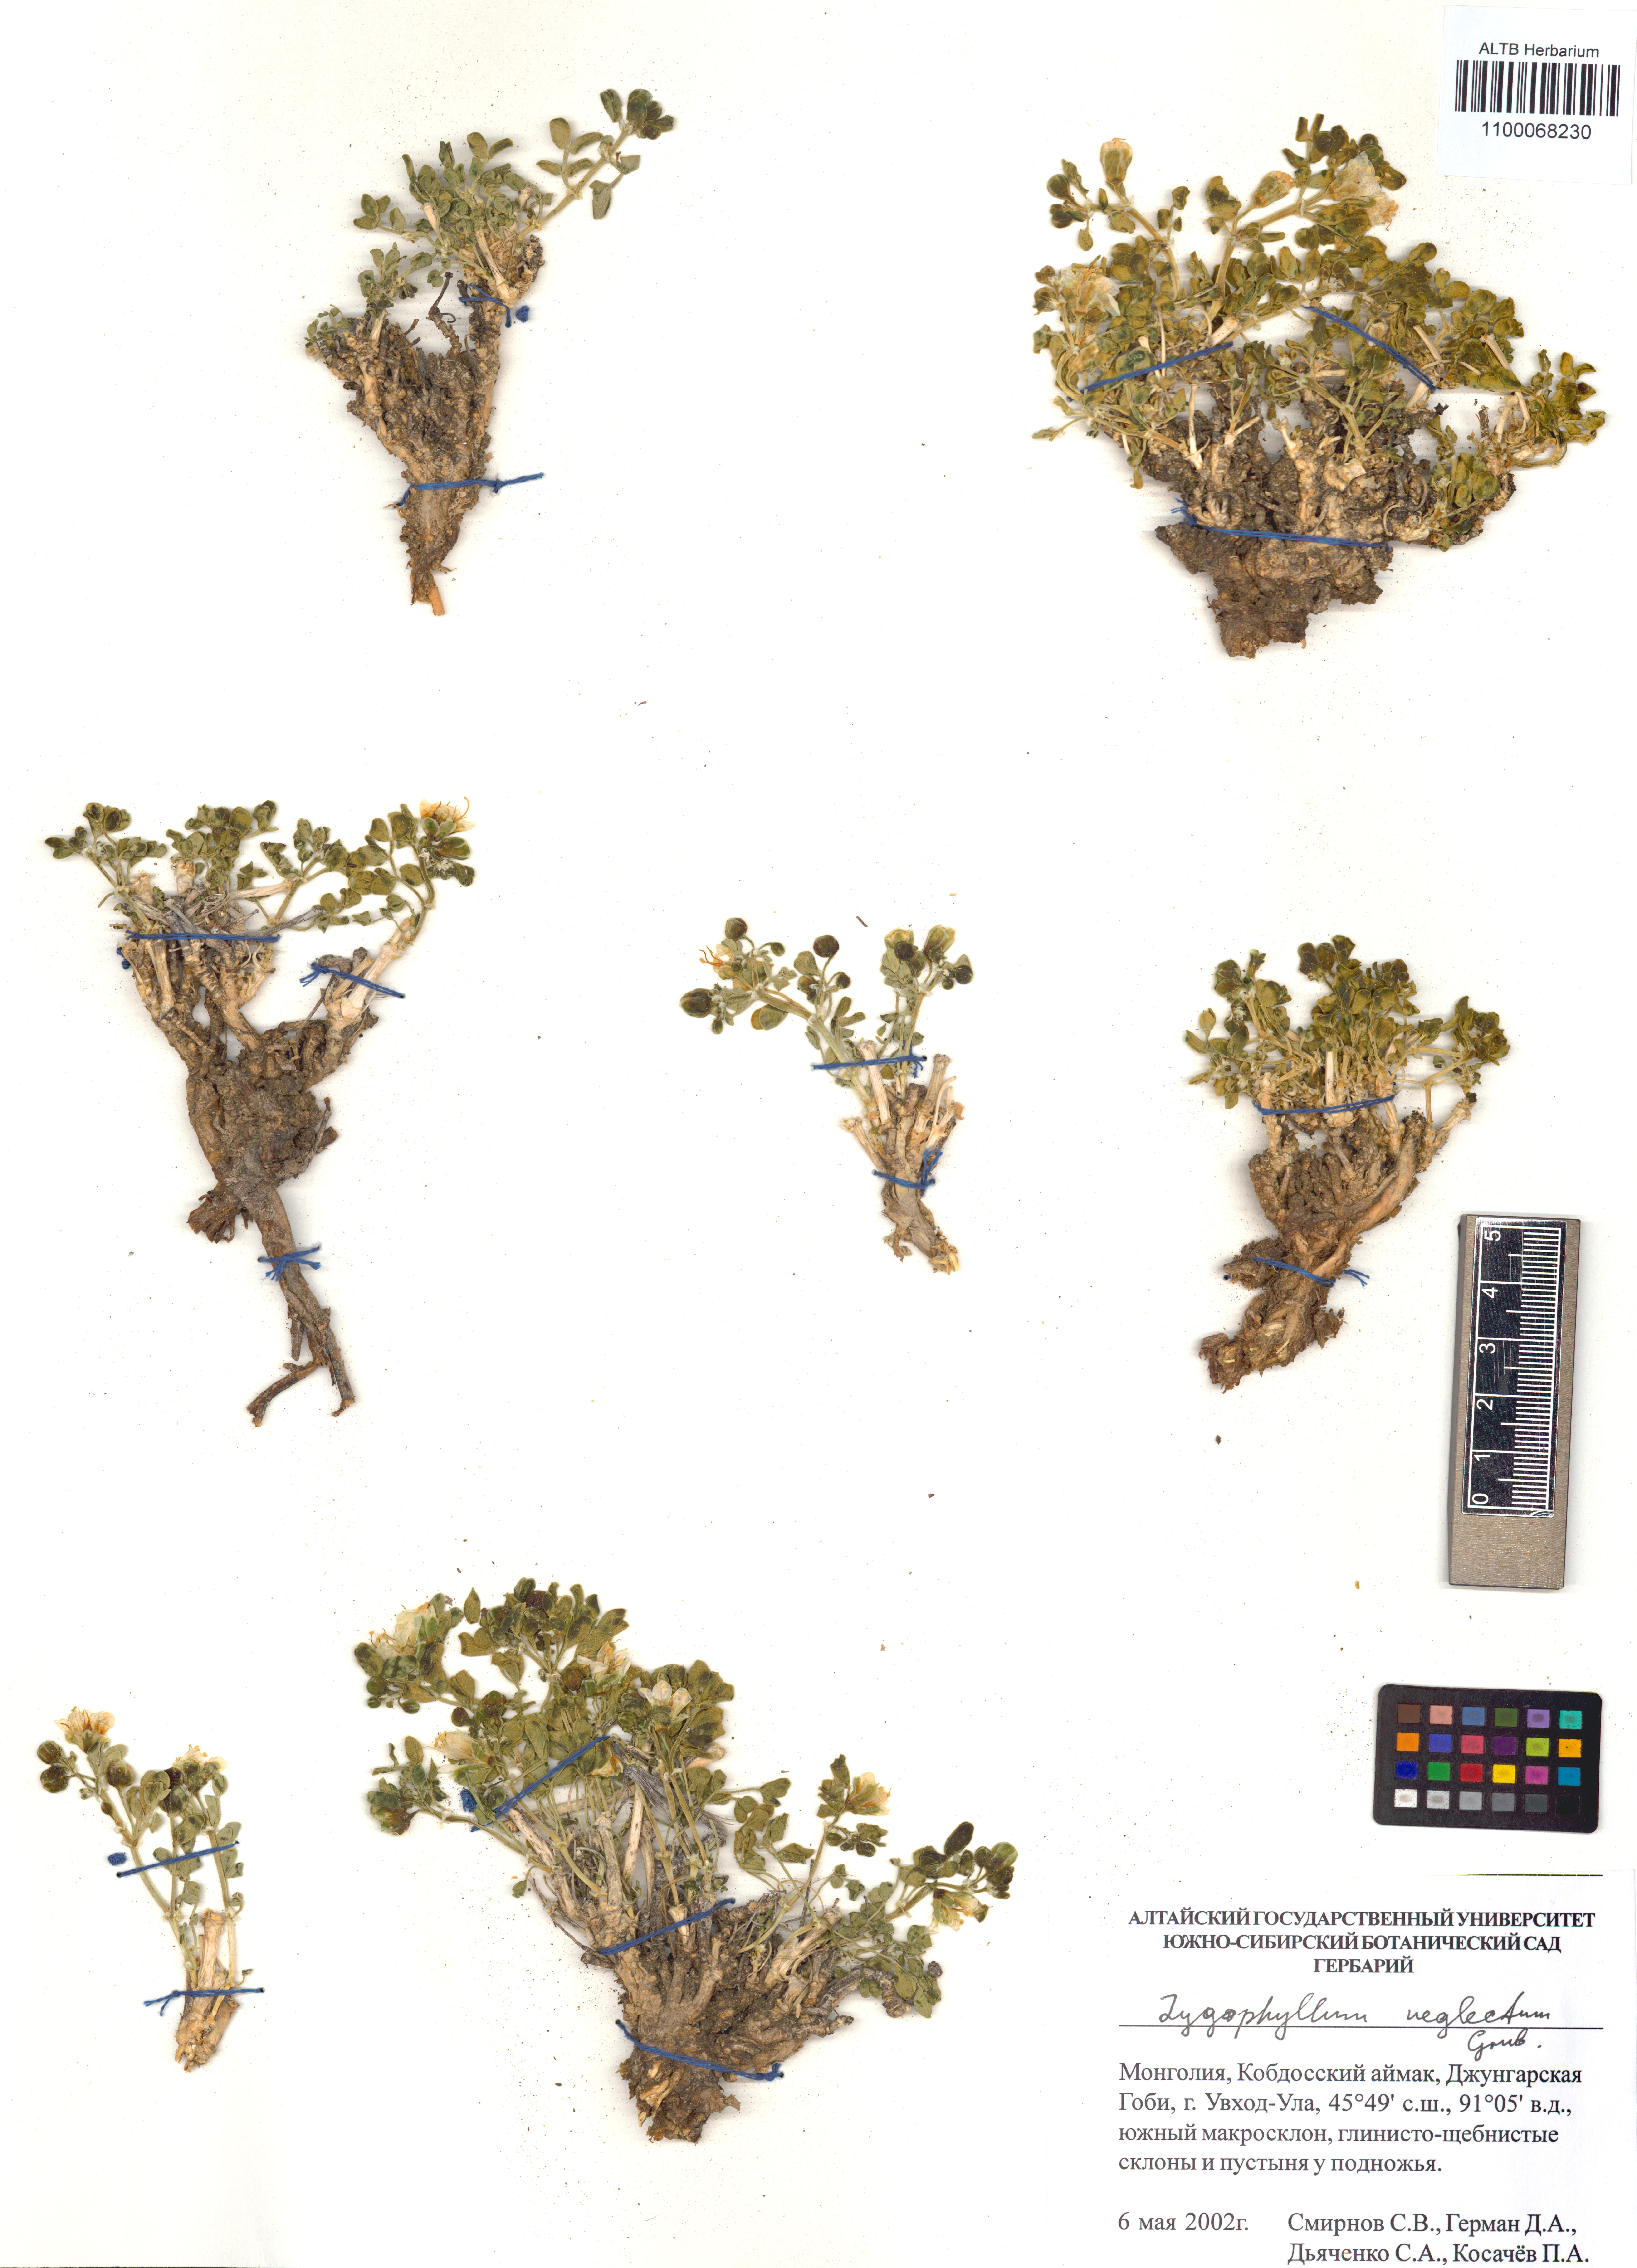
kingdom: Plantae
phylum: Tracheophyta
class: Magnoliopsida
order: Zygophyllales
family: Zygophyllaceae
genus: Zygophyllum
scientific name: Zygophyllum neglectum
